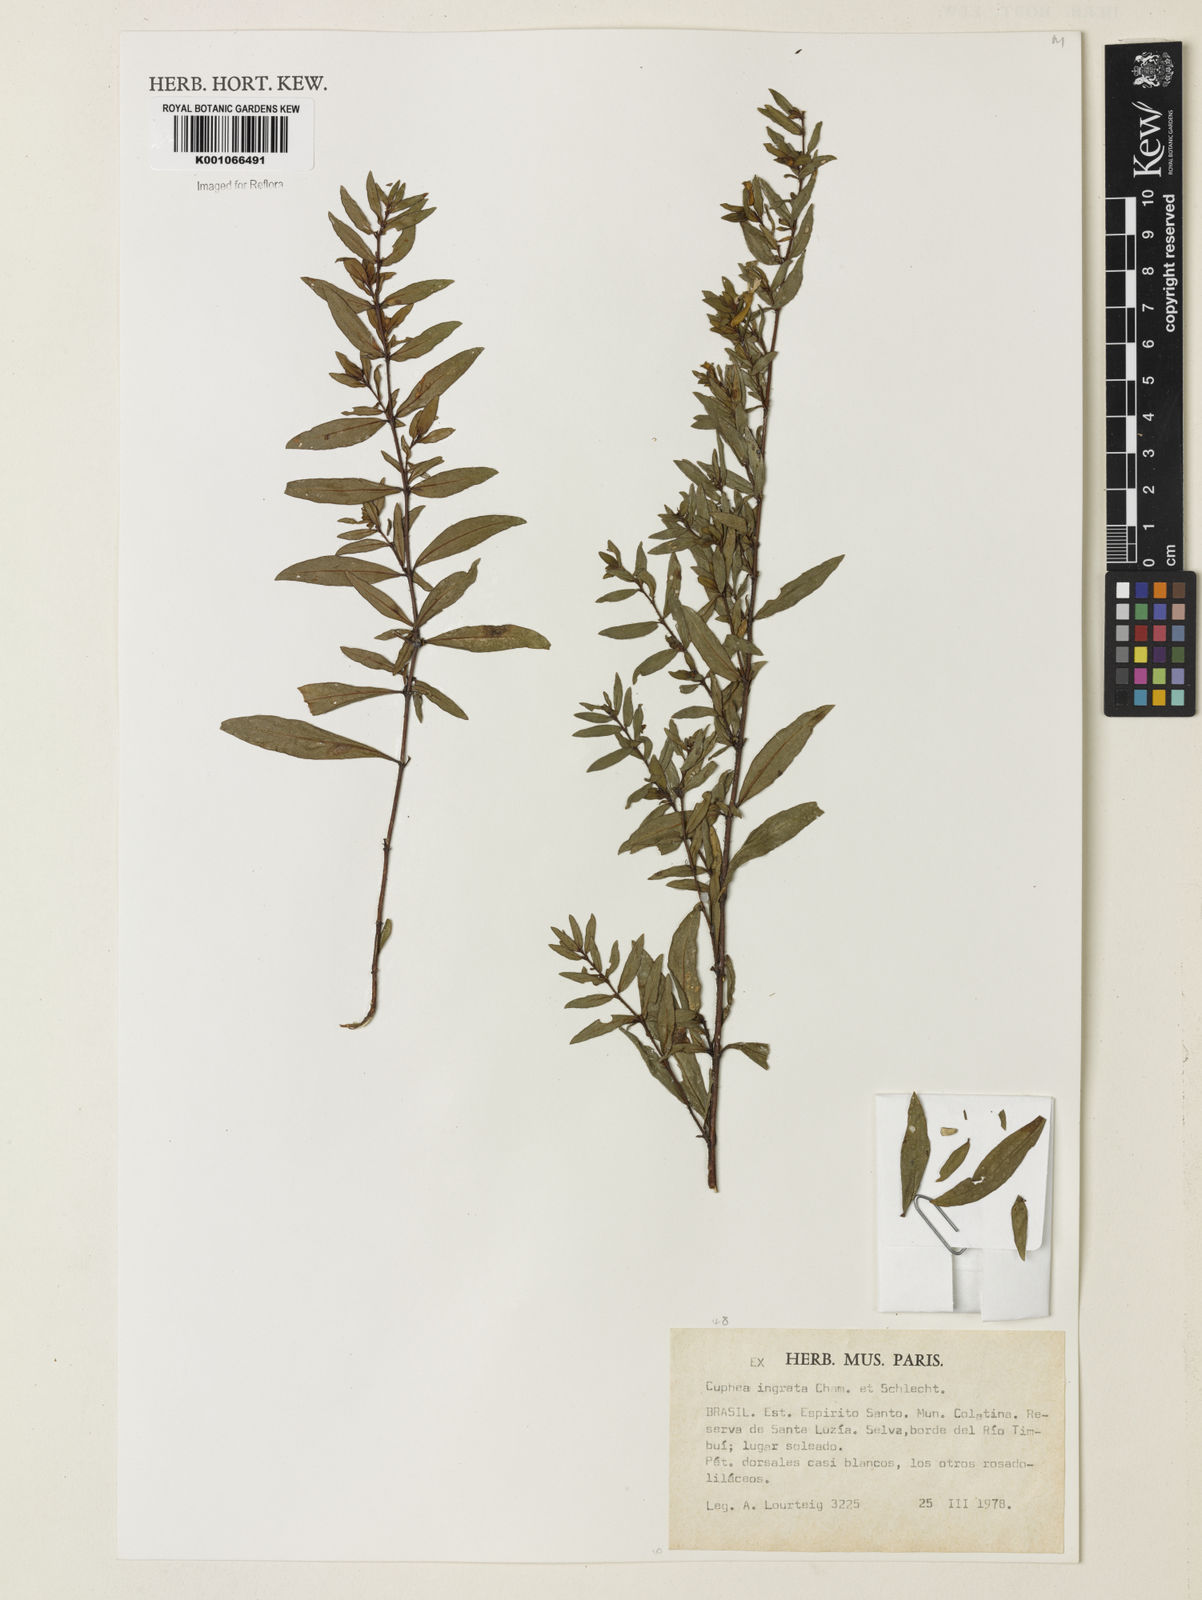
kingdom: Plantae
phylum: Tracheophyta
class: Magnoliopsida
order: Myrtales
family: Lythraceae
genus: Cuphea
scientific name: Cuphea ingrata
